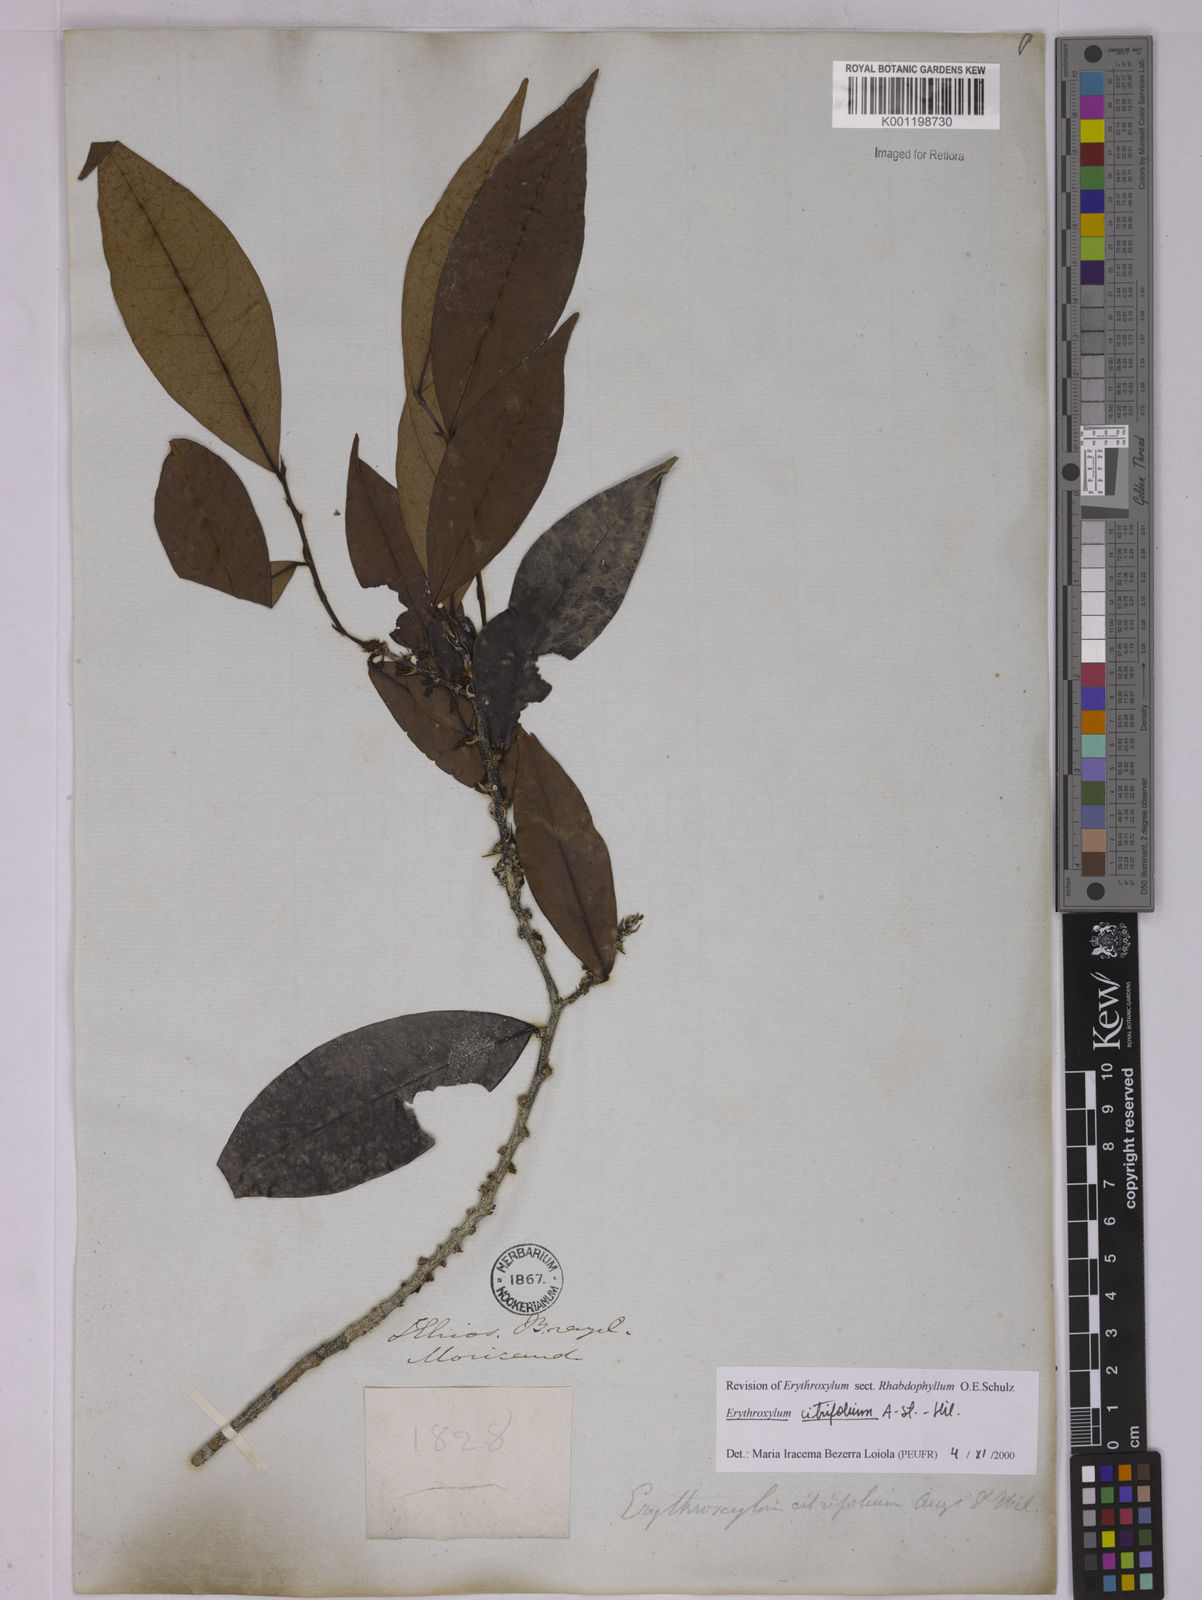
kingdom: Plantae
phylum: Tracheophyta
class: Magnoliopsida
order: Malpighiales
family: Erythroxylaceae
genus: Erythroxylum
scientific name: Erythroxylum citrifolium
